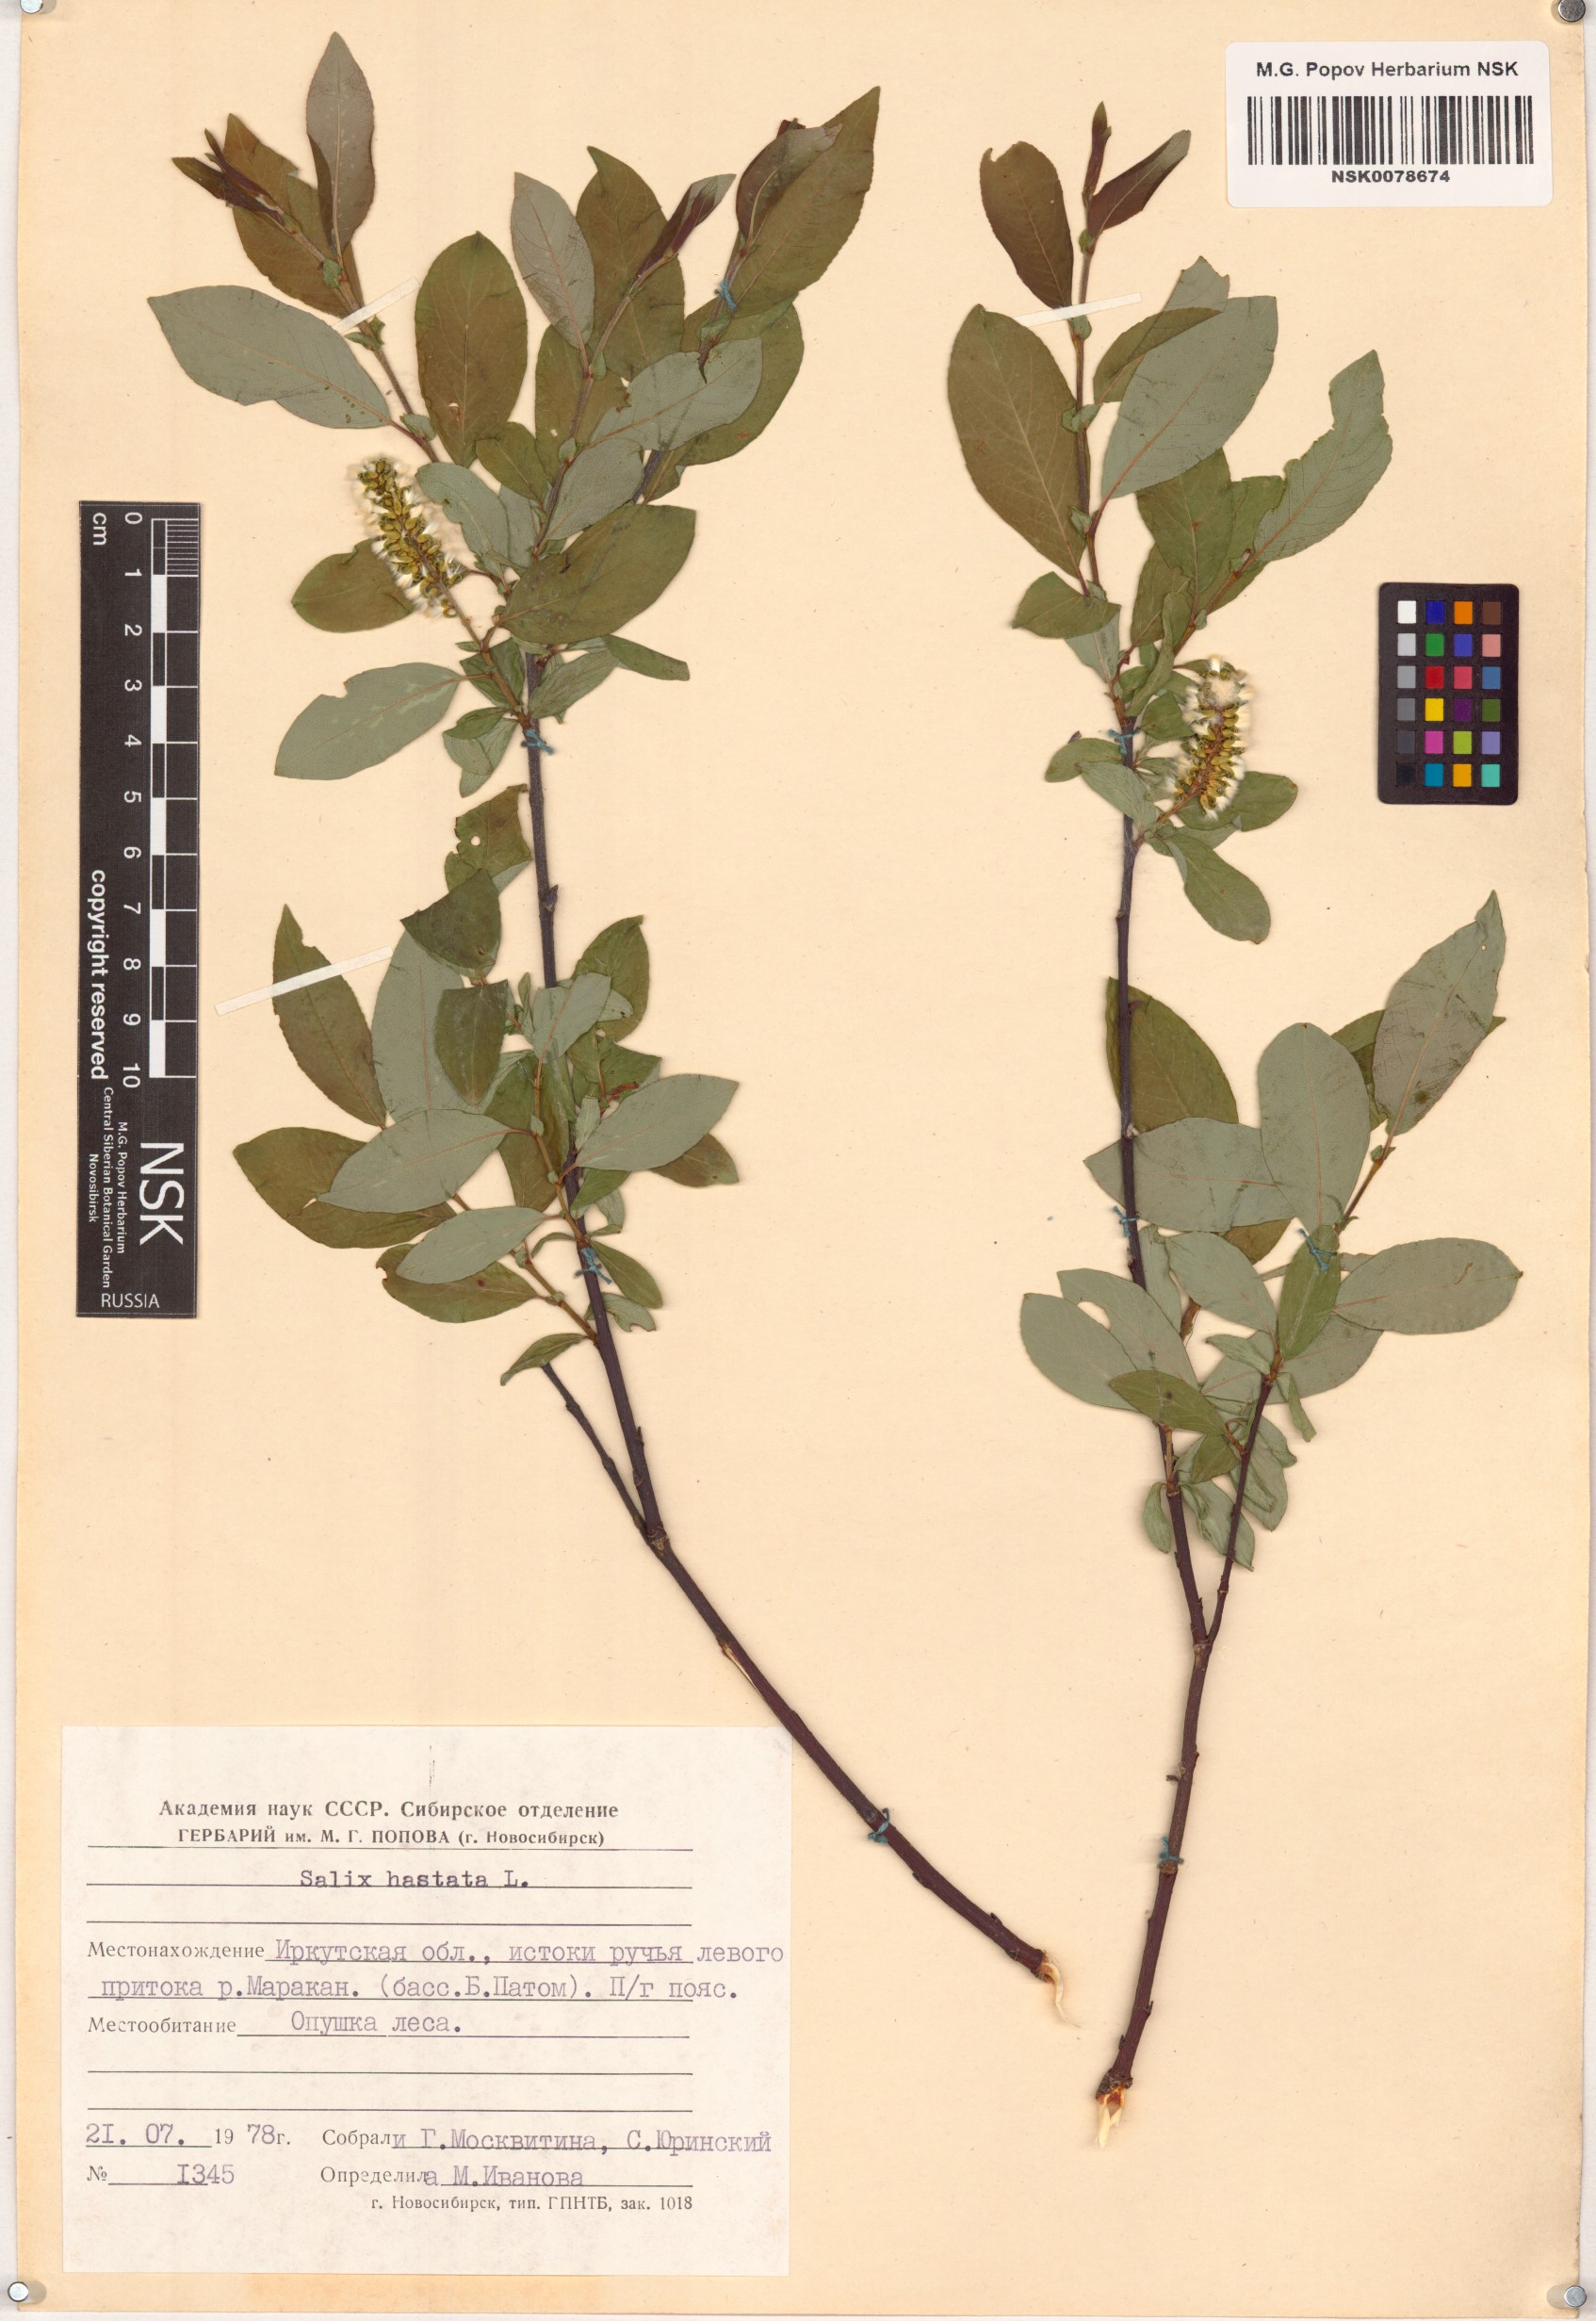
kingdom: Plantae
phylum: Tracheophyta
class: Magnoliopsida
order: Malpighiales
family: Salicaceae
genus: Salix
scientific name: Salix hastata
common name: Halberd willow
